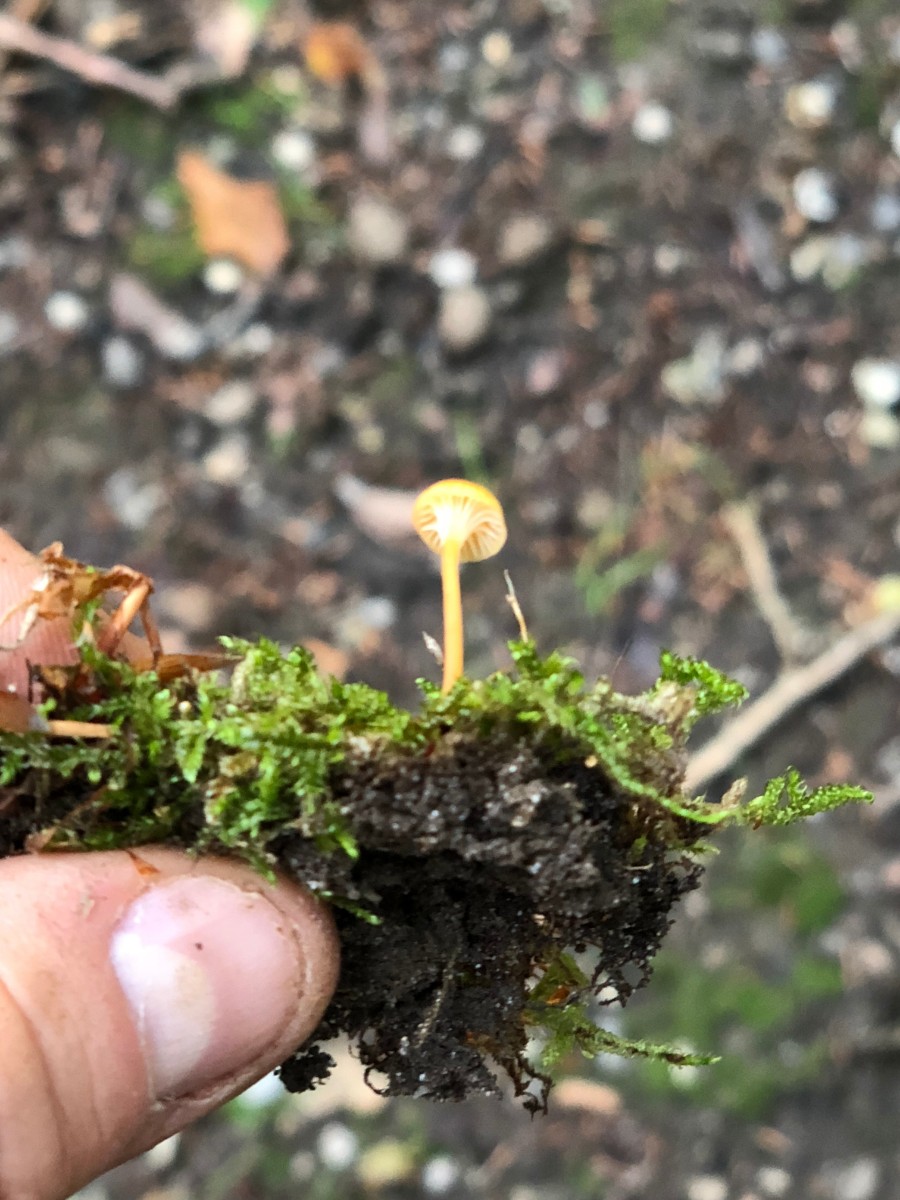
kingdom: Fungi
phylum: Basidiomycota
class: Agaricomycetes
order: Hymenochaetales
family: Rickenellaceae
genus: Rickenella
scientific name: Rickenella fibula
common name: orange mosnavlehat
